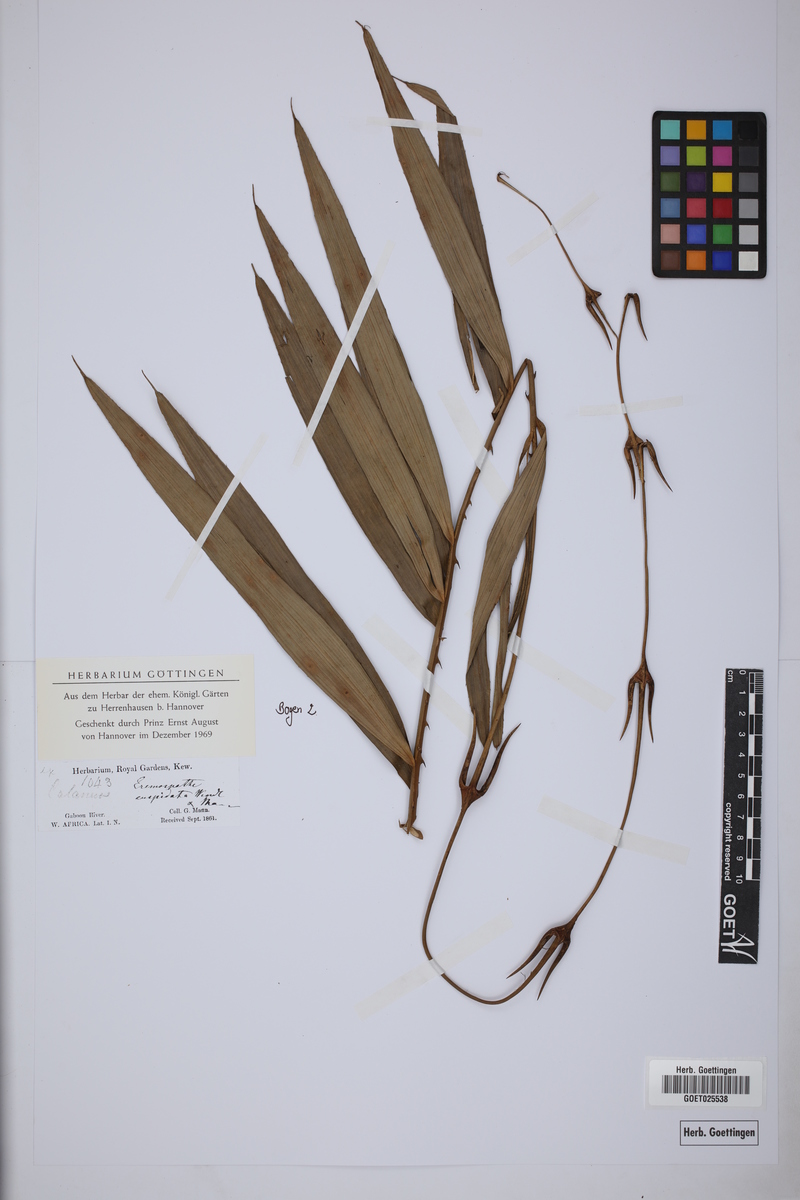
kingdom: Plantae
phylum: Tracheophyta
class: Liliopsida
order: Arecales
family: Arecaceae
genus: Eremospatha
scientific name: Eremospatha cuspidata
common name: Rattan
